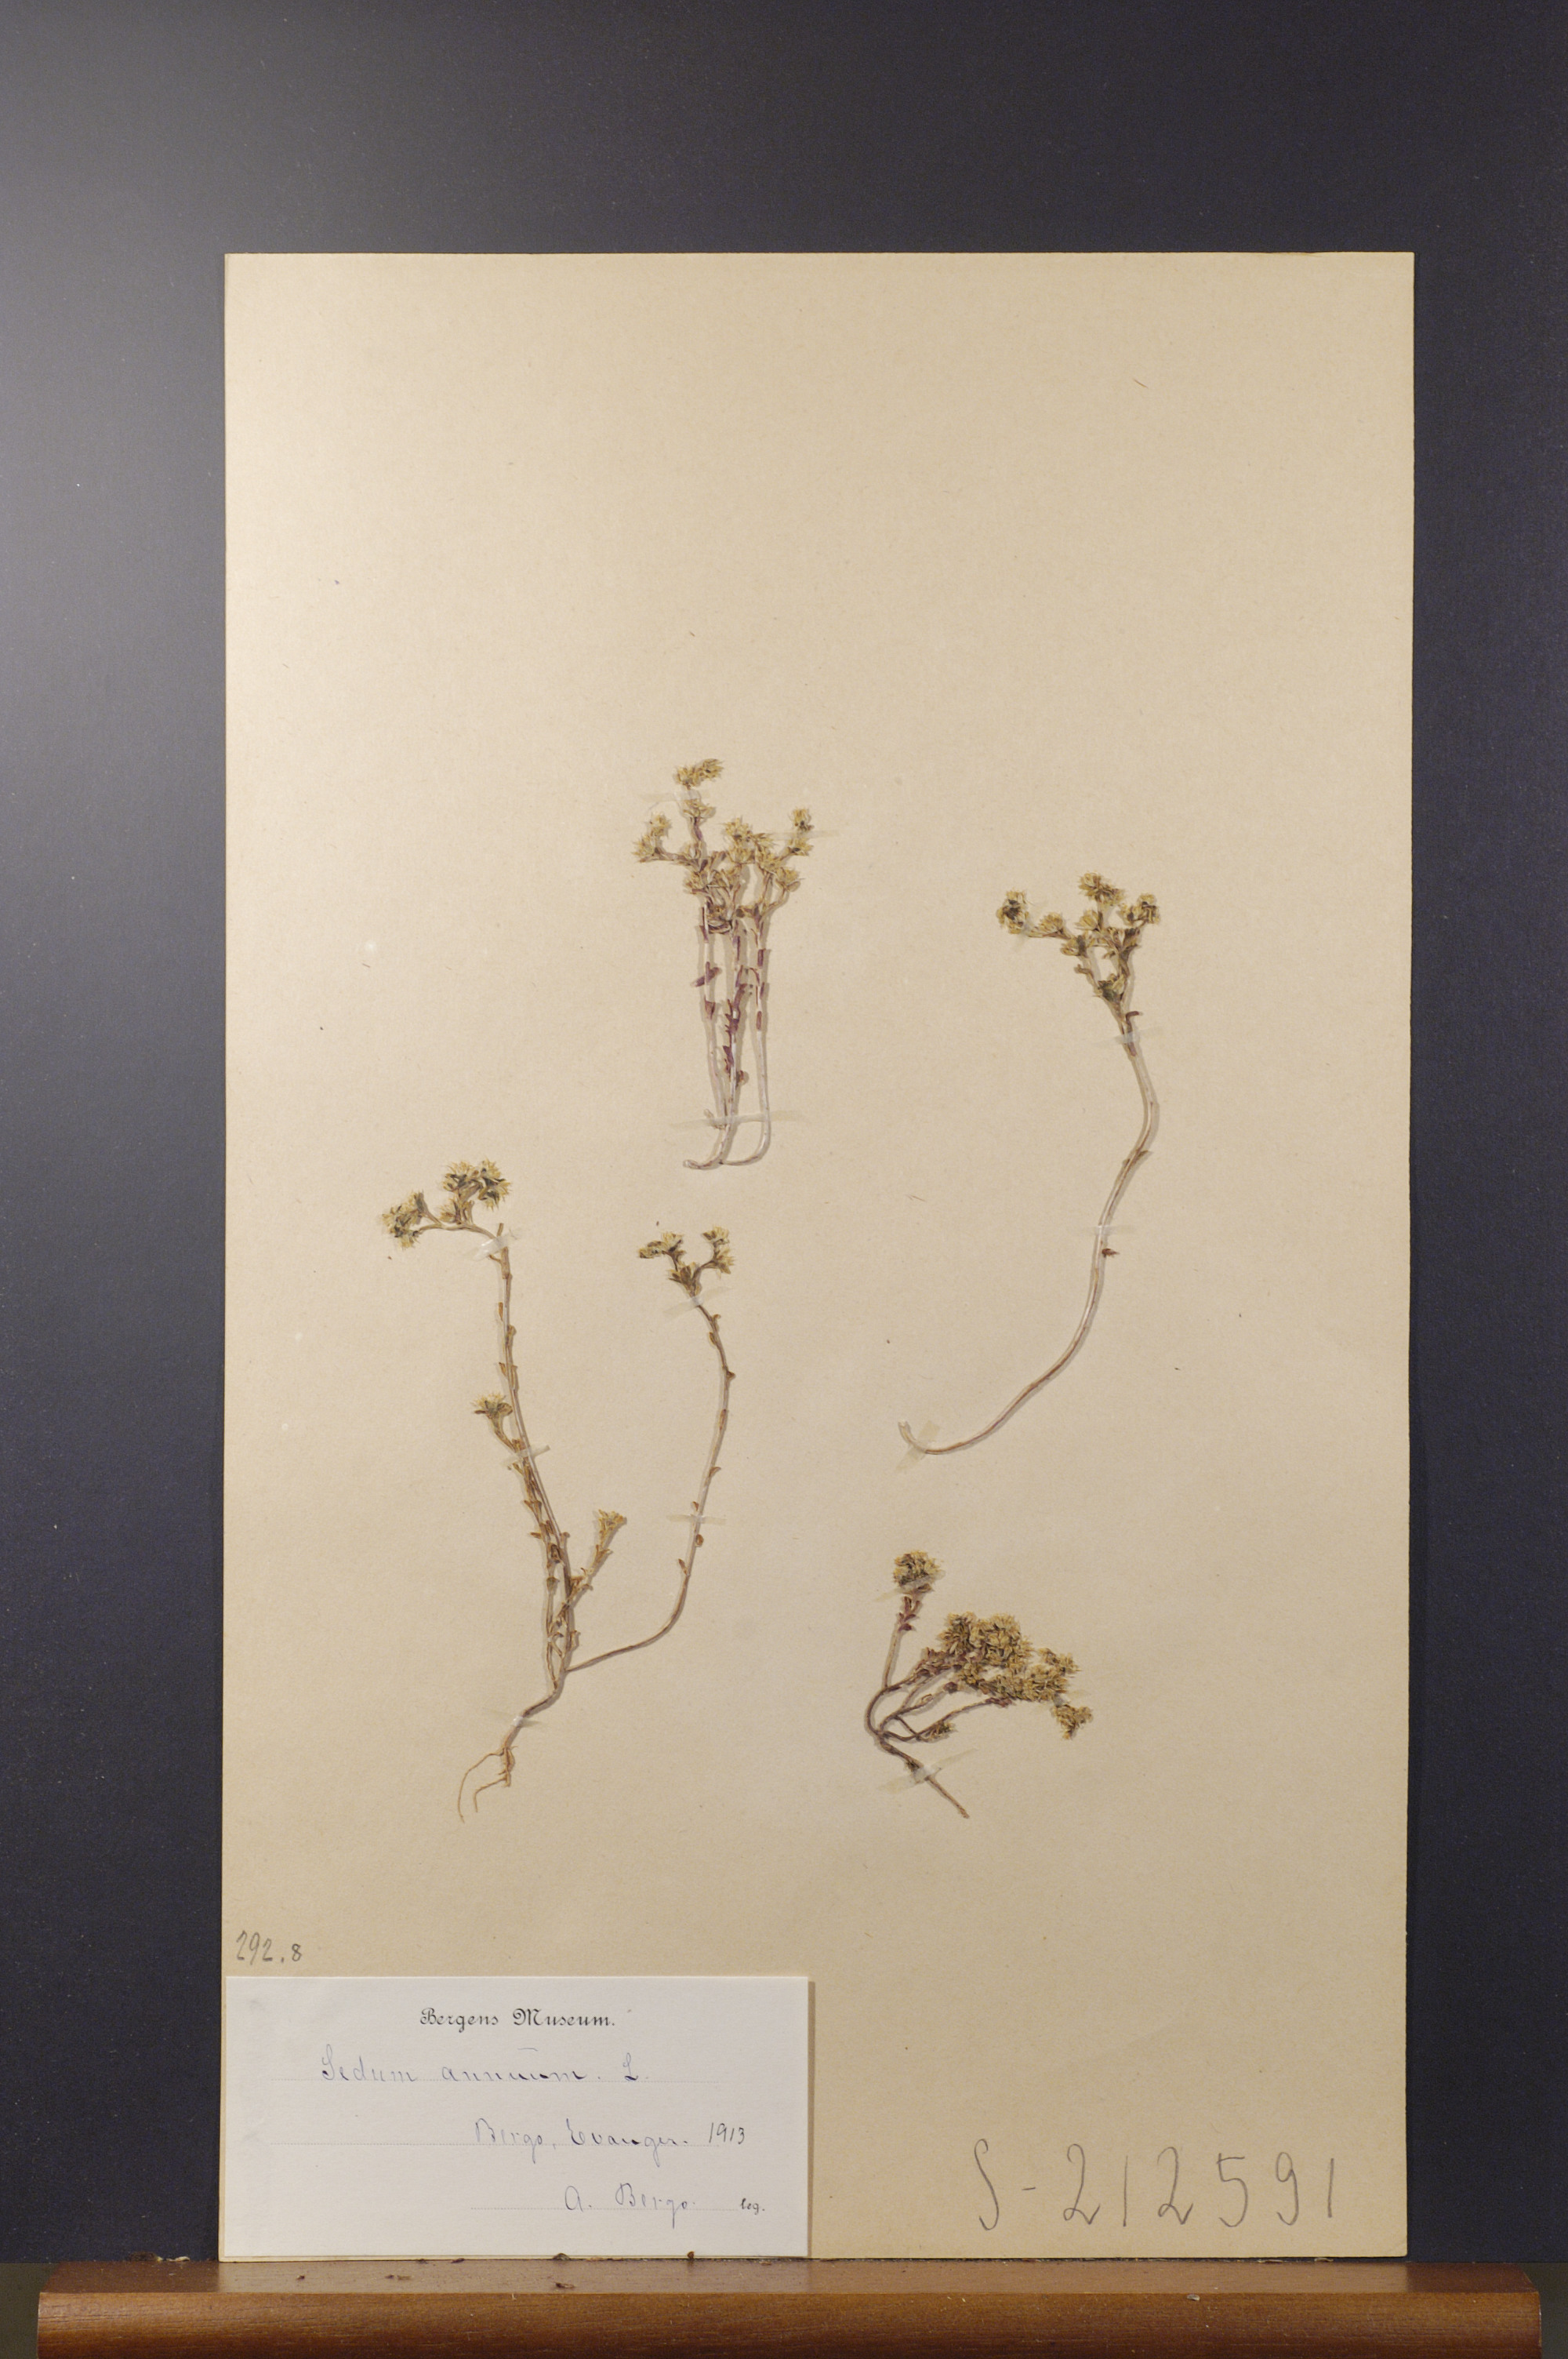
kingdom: Plantae
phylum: Tracheophyta
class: Magnoliopsida
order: Saxifragales
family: Crassulaceae
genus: Sedum
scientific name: Sedum annuum
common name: Annual stonecrop
